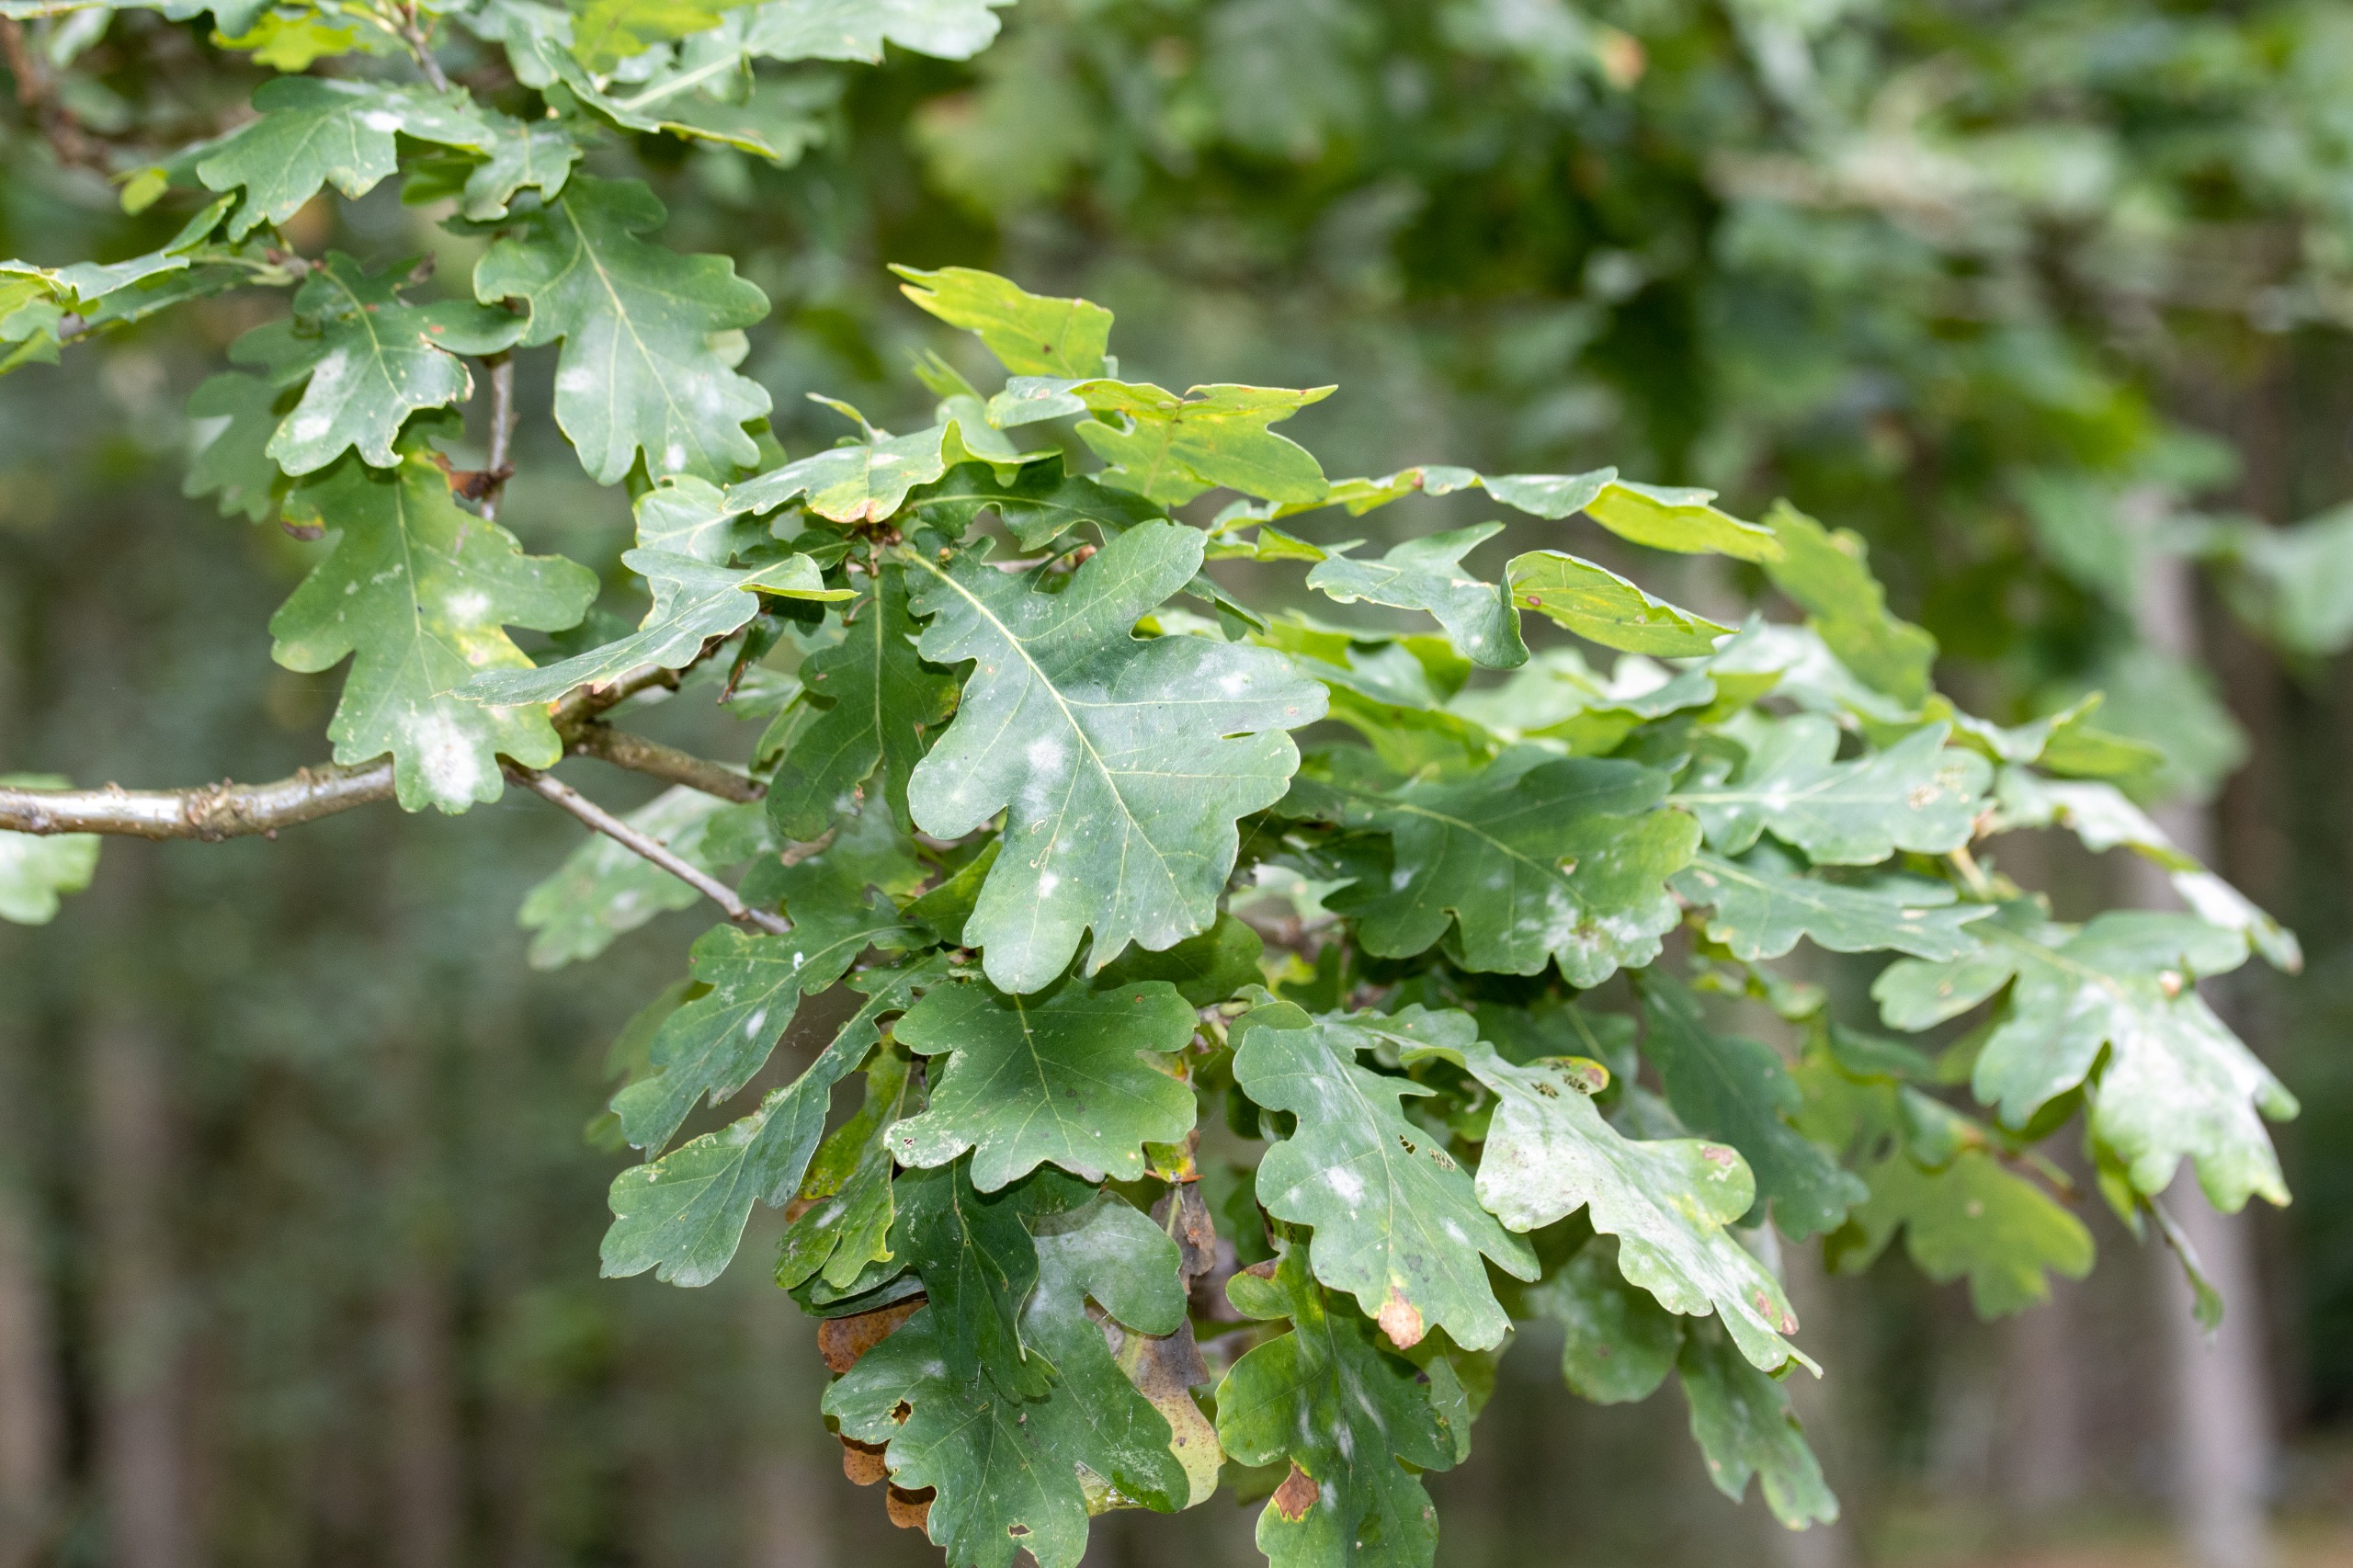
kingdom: Plantae
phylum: Tracheophyta
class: Magnoliopsida
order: Fagales
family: Fagaceae
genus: Quercus
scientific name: Quercus robur
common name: Stilk-eg/almindelig eg
